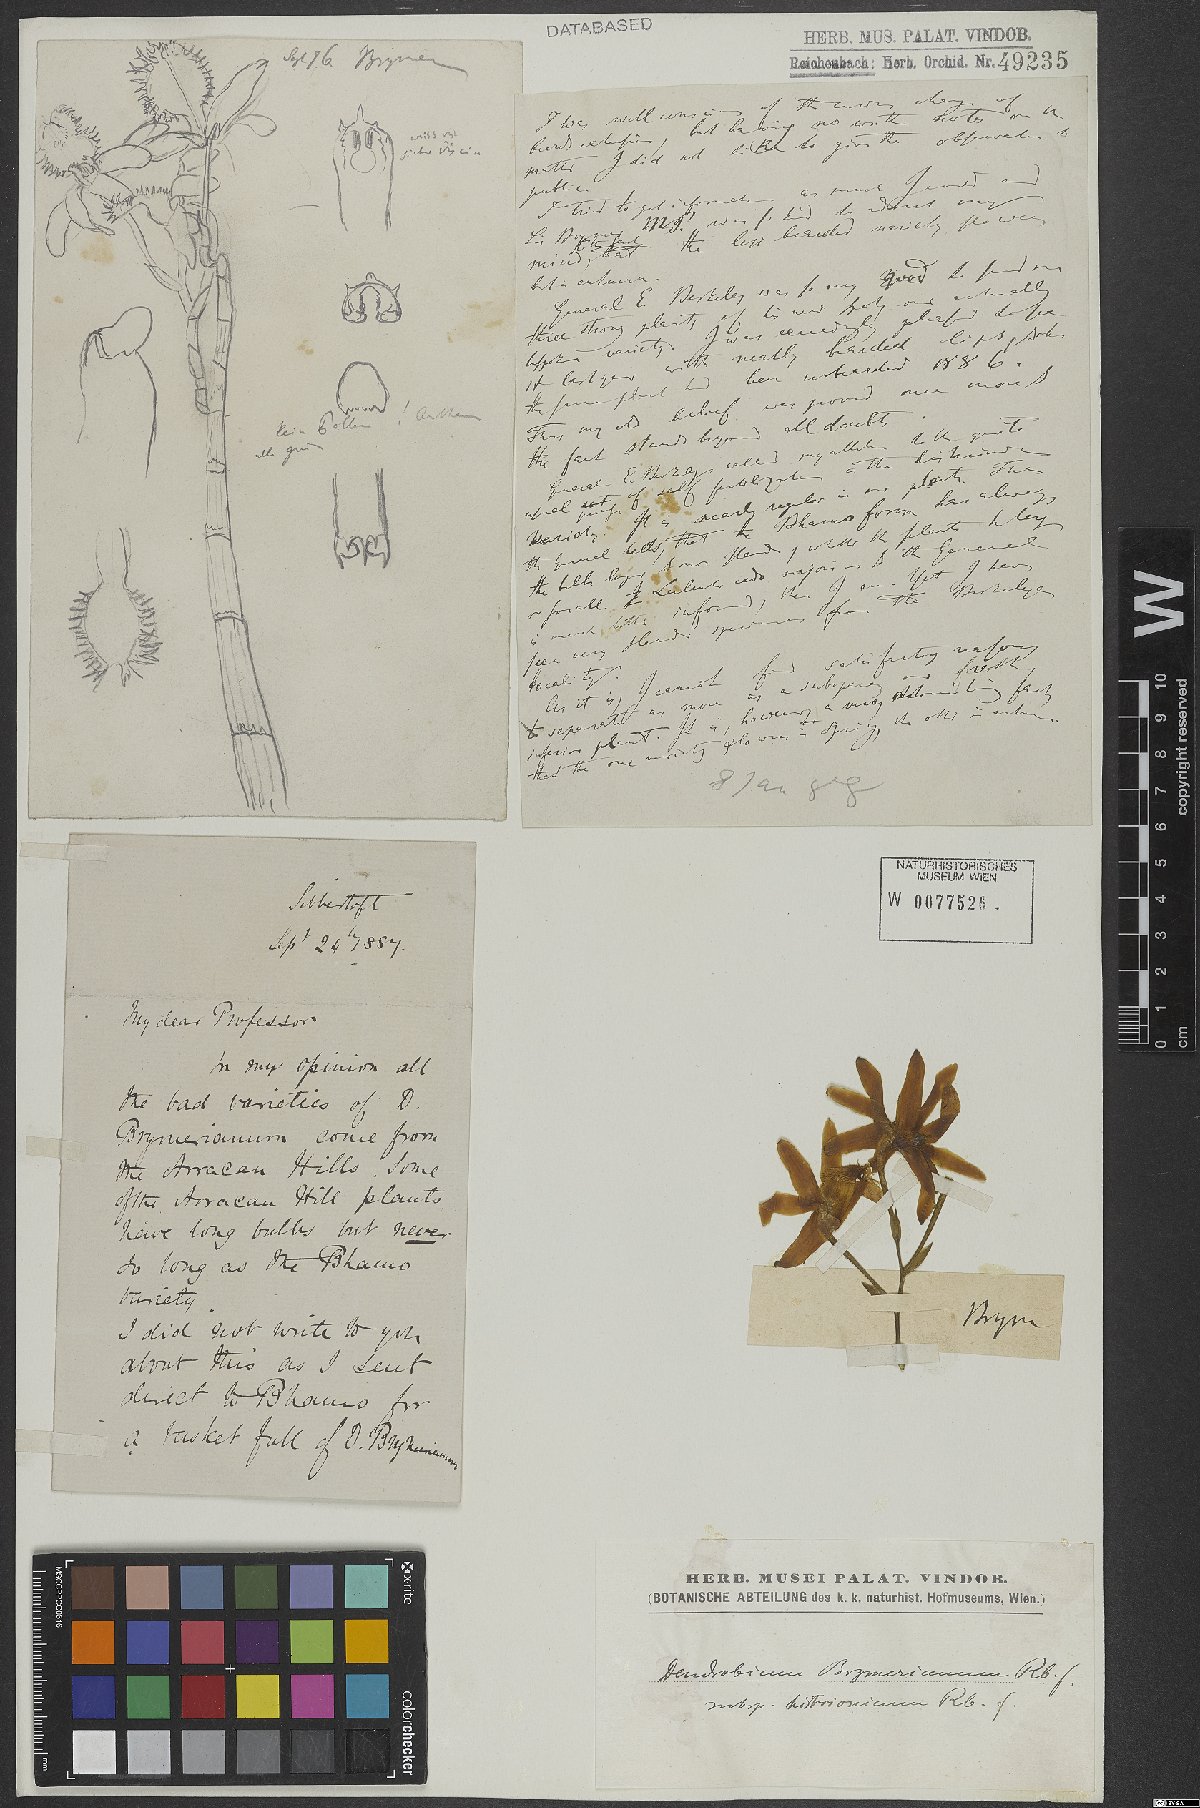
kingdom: Plantae
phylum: Tracheophyta
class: Liliopsida
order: Asparagales
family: Orchidaceae
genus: Dendrobium
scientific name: Dendrobium histrionicum
